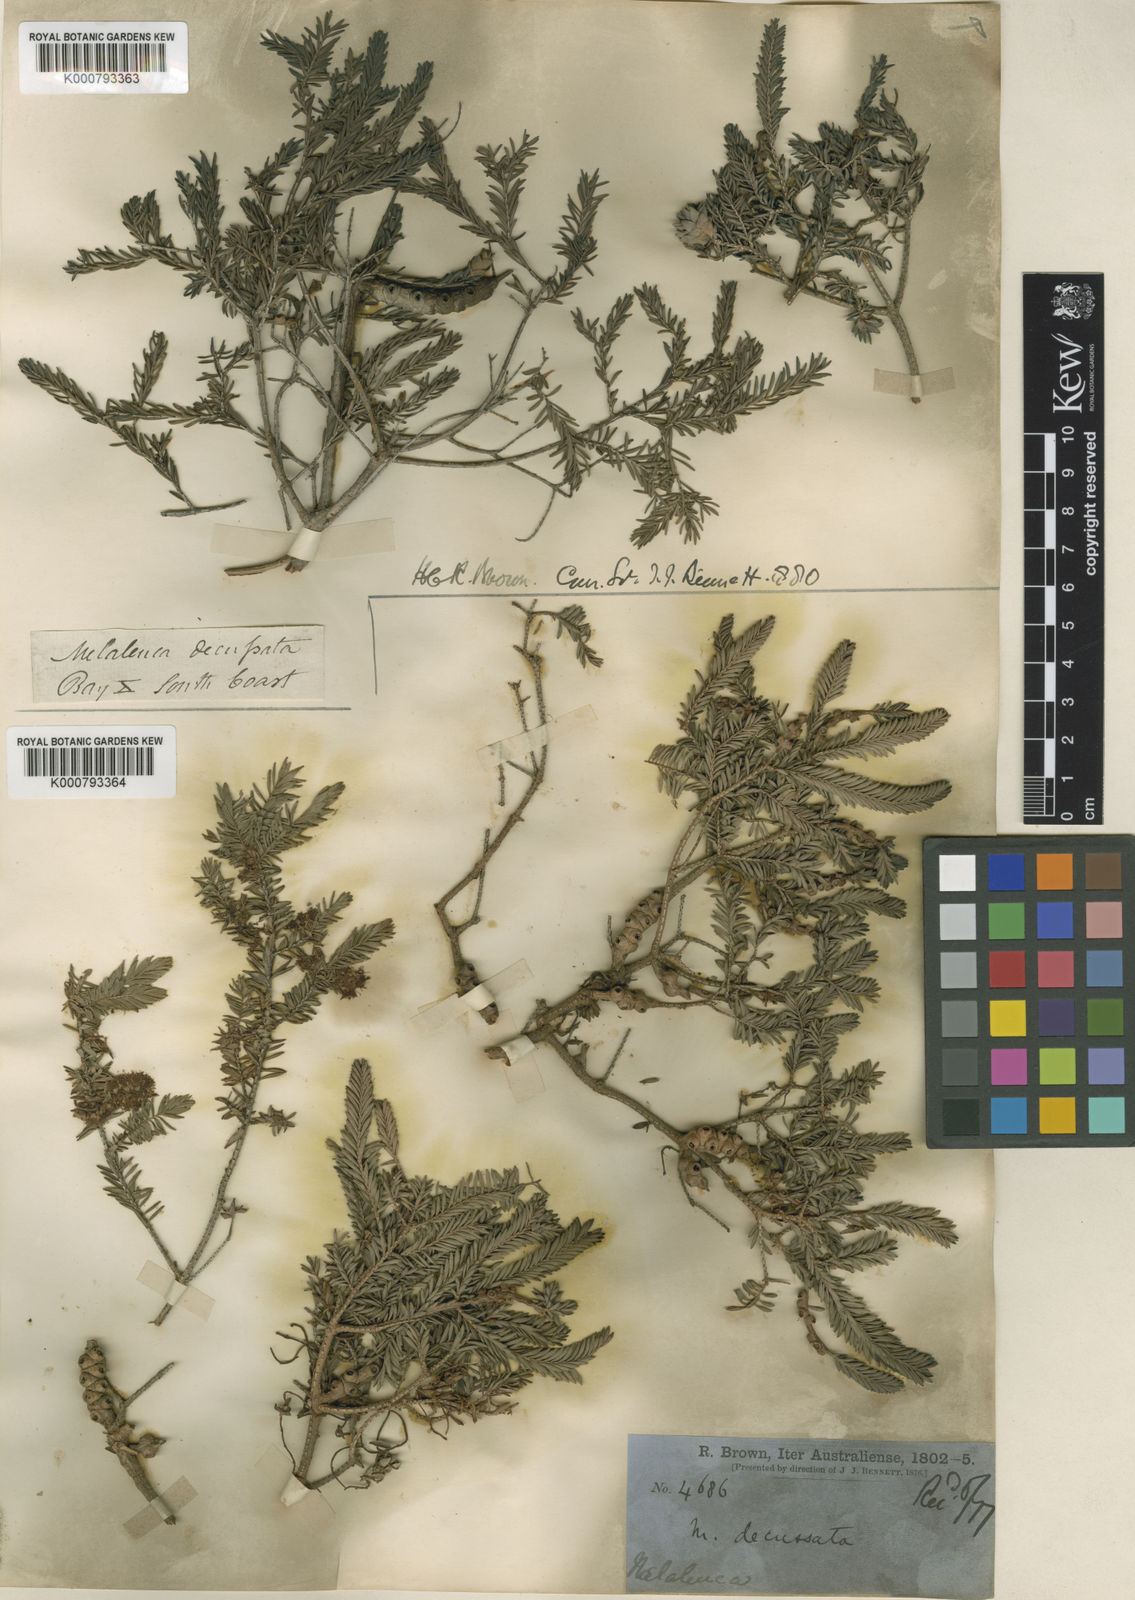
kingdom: Plantae
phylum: Tracheophyta
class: Magnoliopsida
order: Myrtales
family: Myrtaceae
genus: Melaleuca
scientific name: Melaleuca decussata
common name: Cross-leaf honey myrtle
